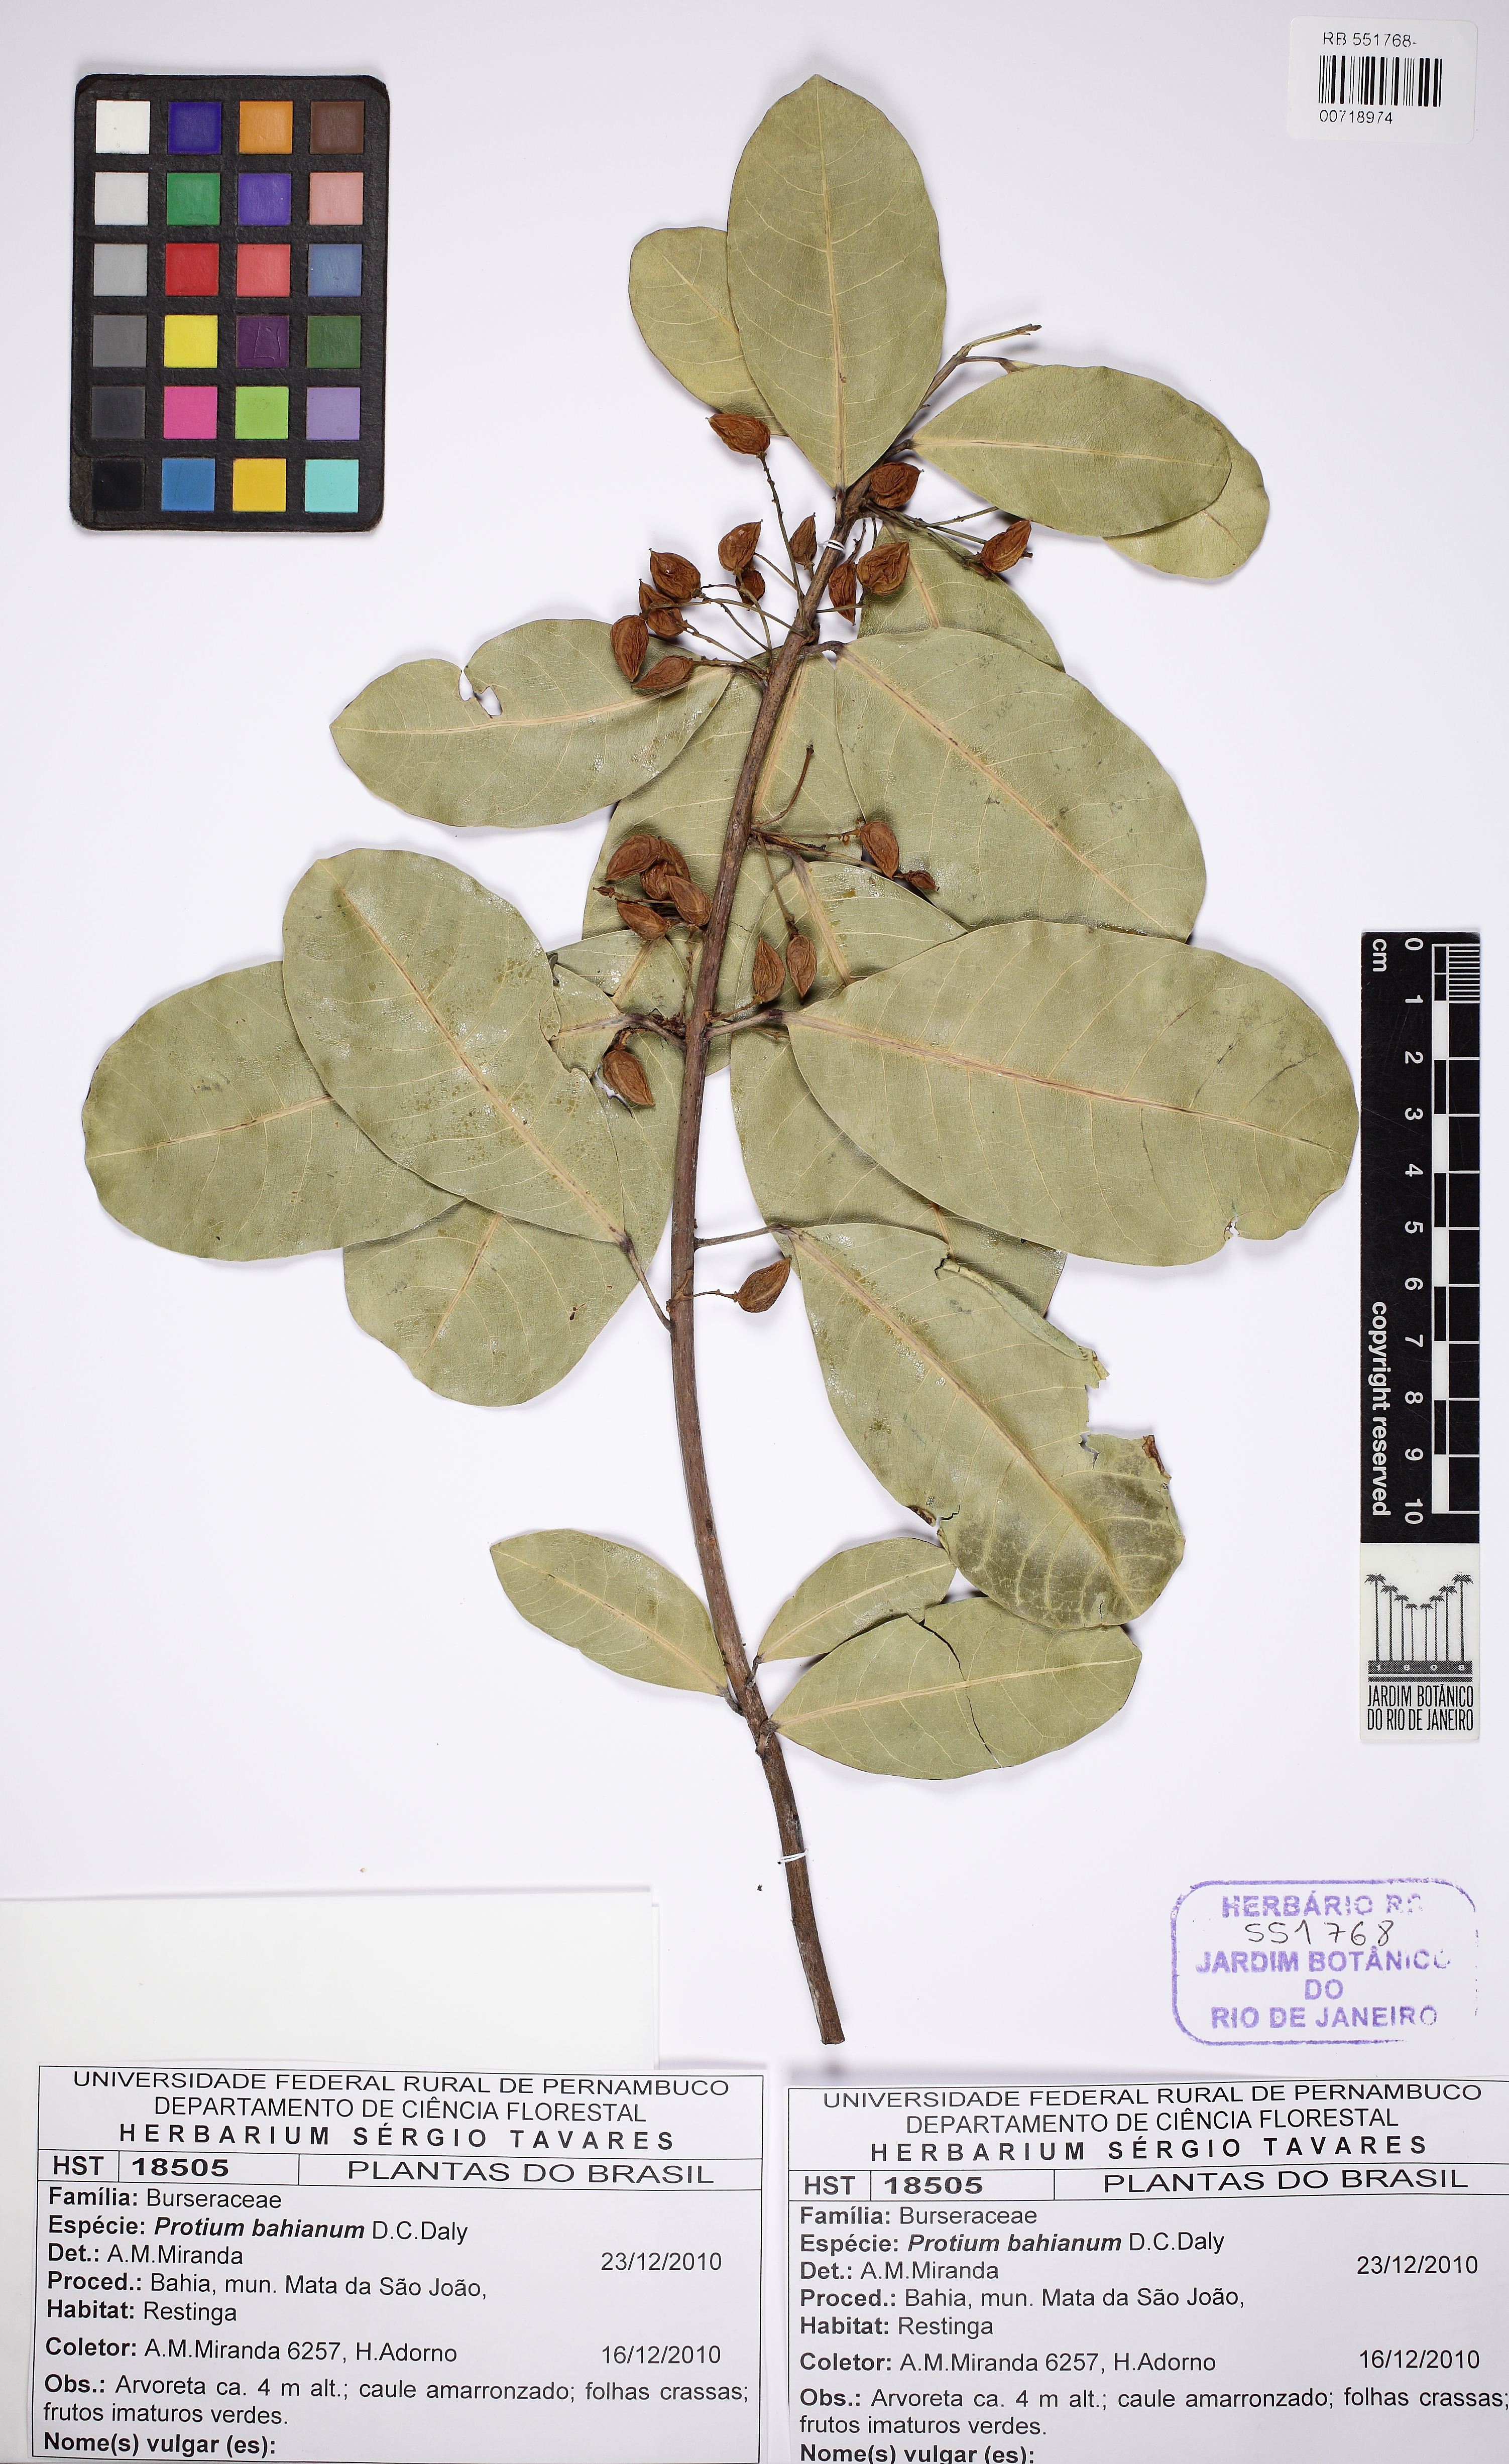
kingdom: Plantae
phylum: Tracheophyta
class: Magnoliopsida
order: Sapindales
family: Burseraceae
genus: Protium
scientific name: Protium bahianum
